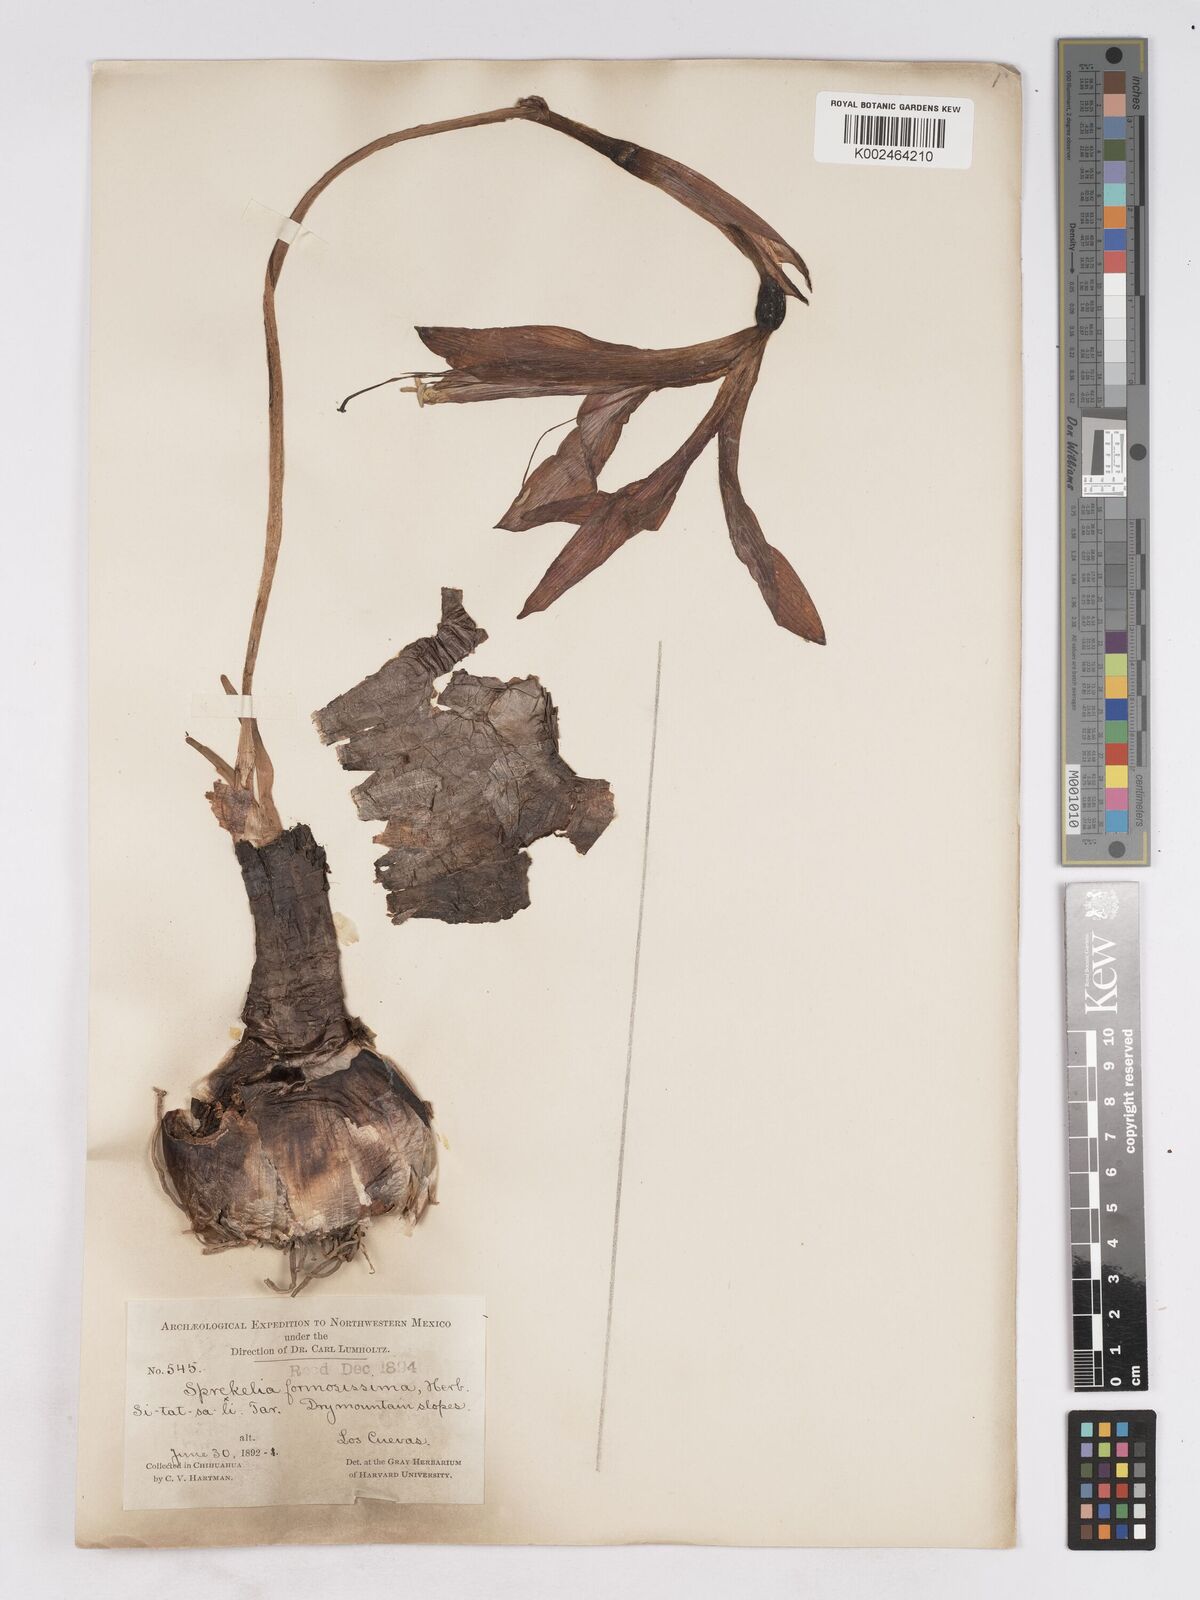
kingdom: Plantae
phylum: Tracheophyta
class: Liliopsida
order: Asparagales
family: Amaryllidaceae
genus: Sprekelia
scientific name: Sprekelia formosissima
